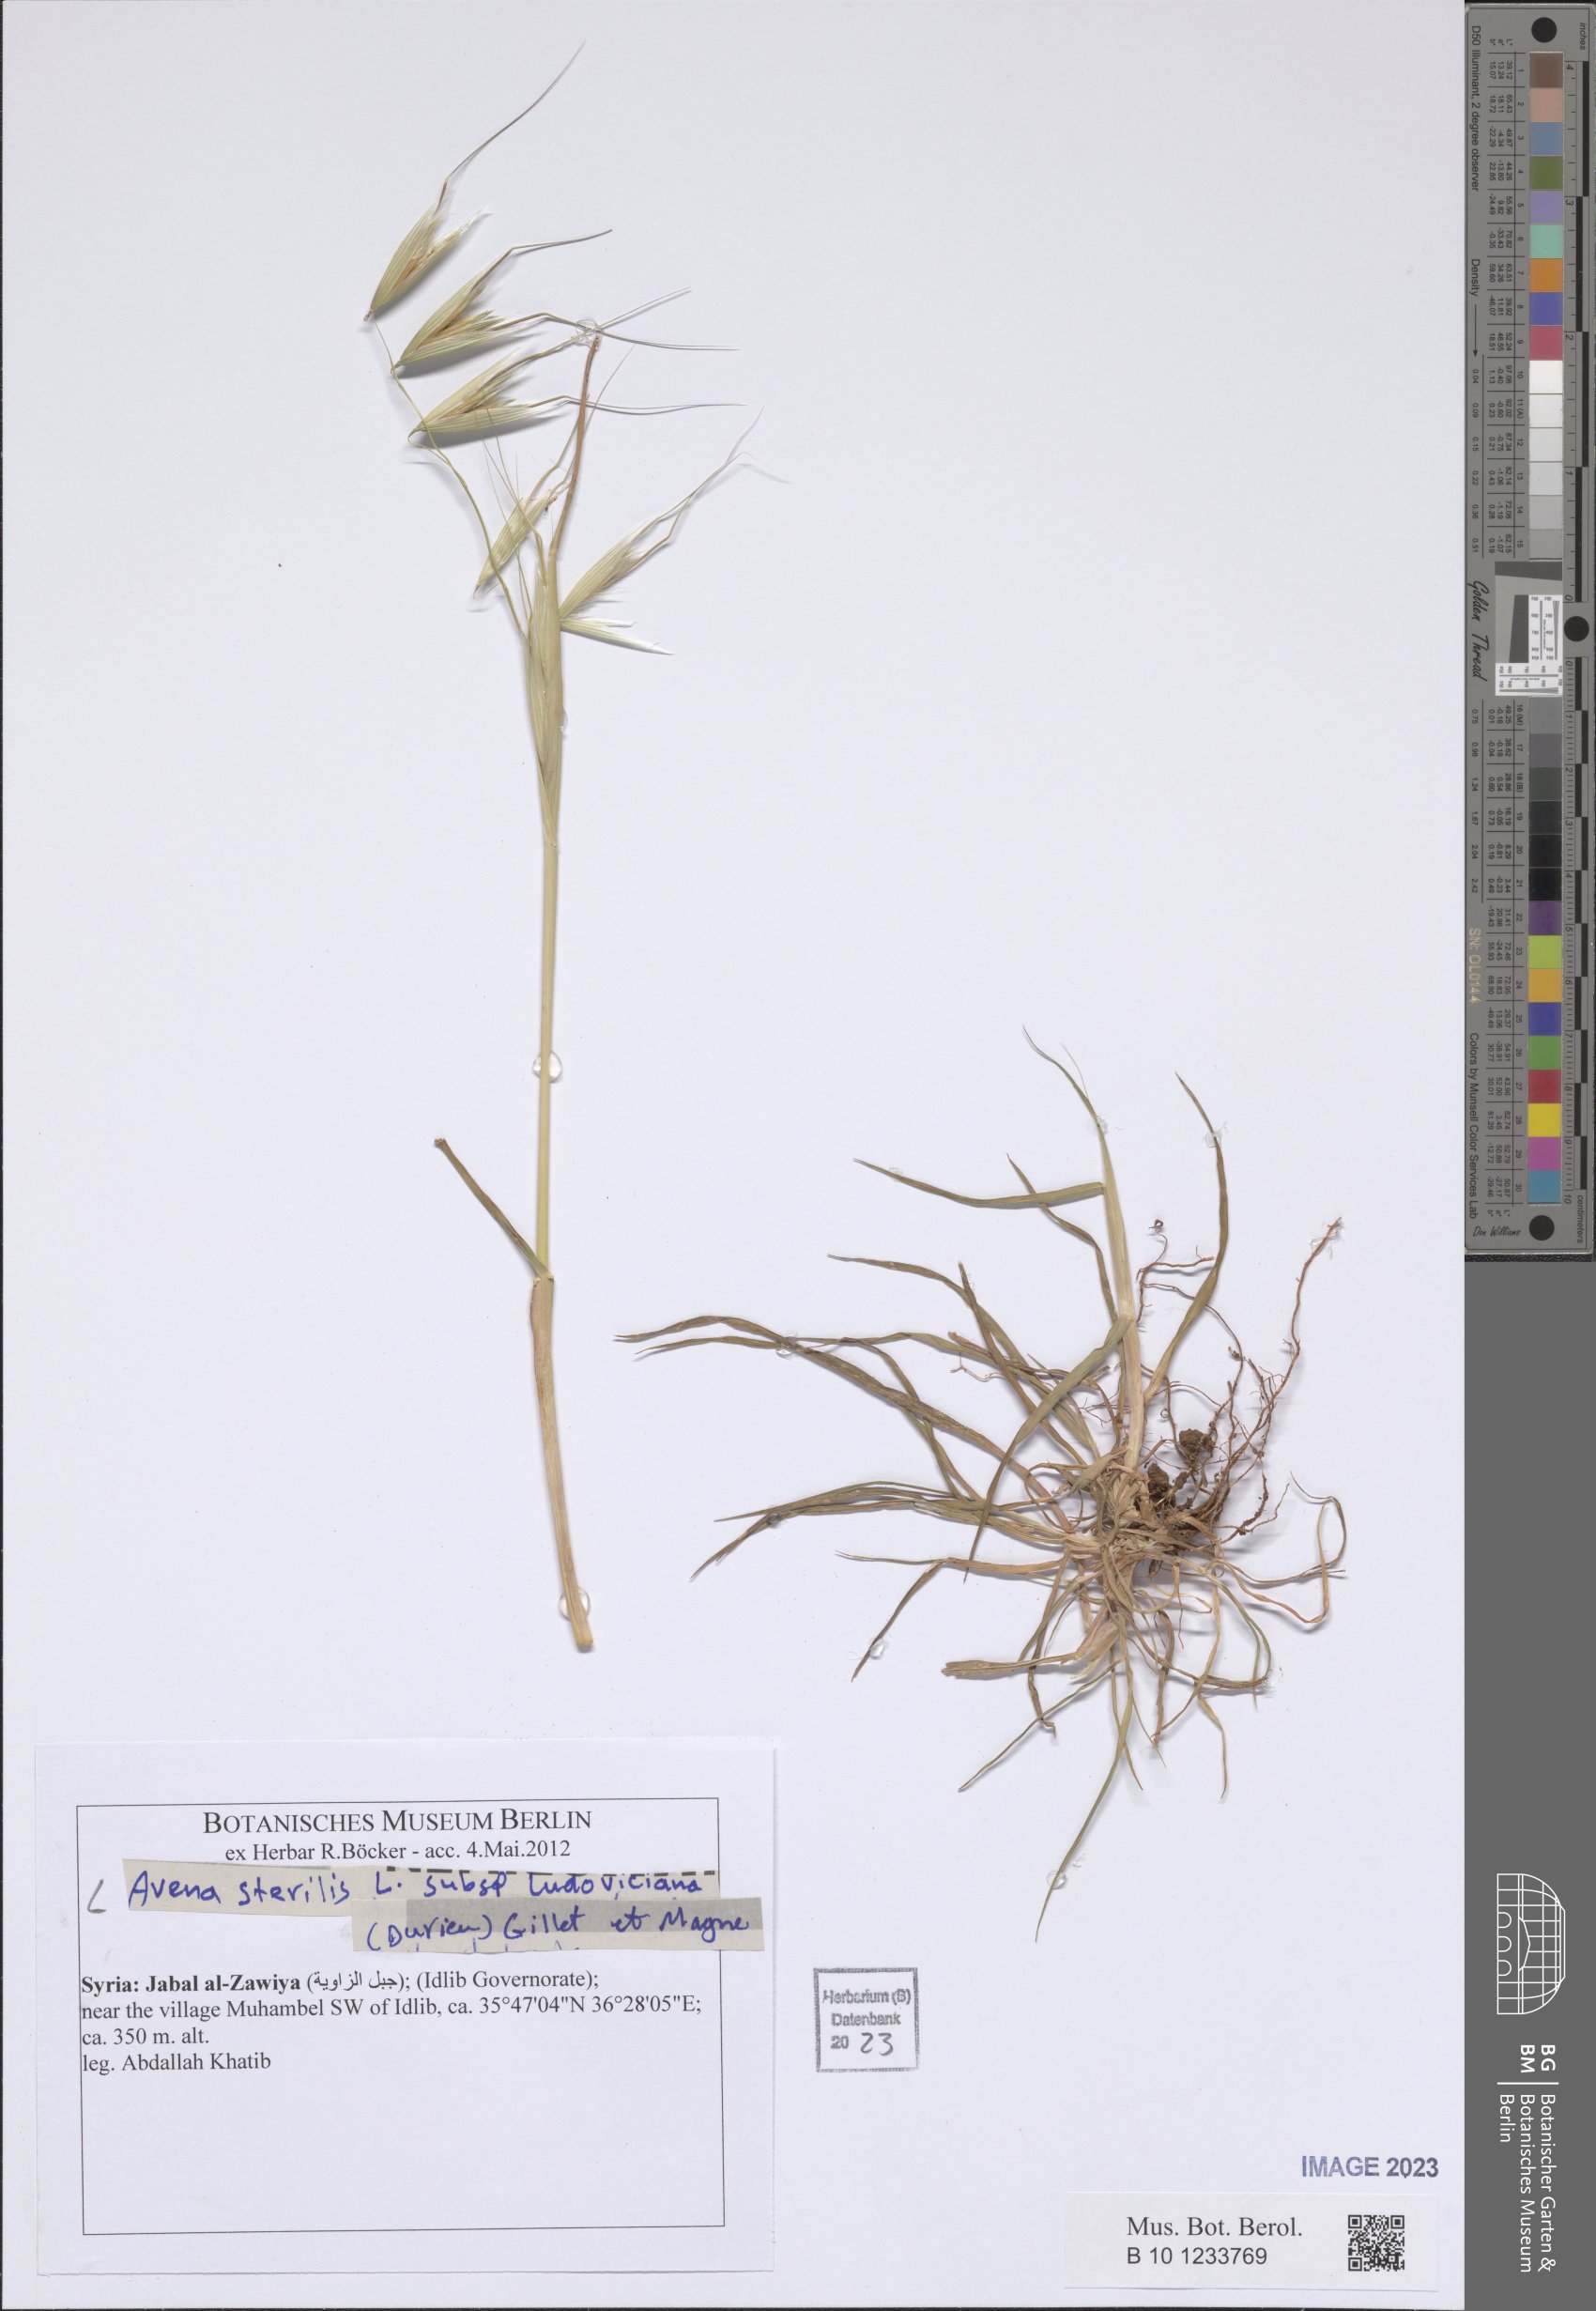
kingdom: Plantae
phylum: Tracheophyta
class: Liliopsida
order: Poales
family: Poaceae
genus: Avena
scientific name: Avena sterilis
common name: Animated oat
